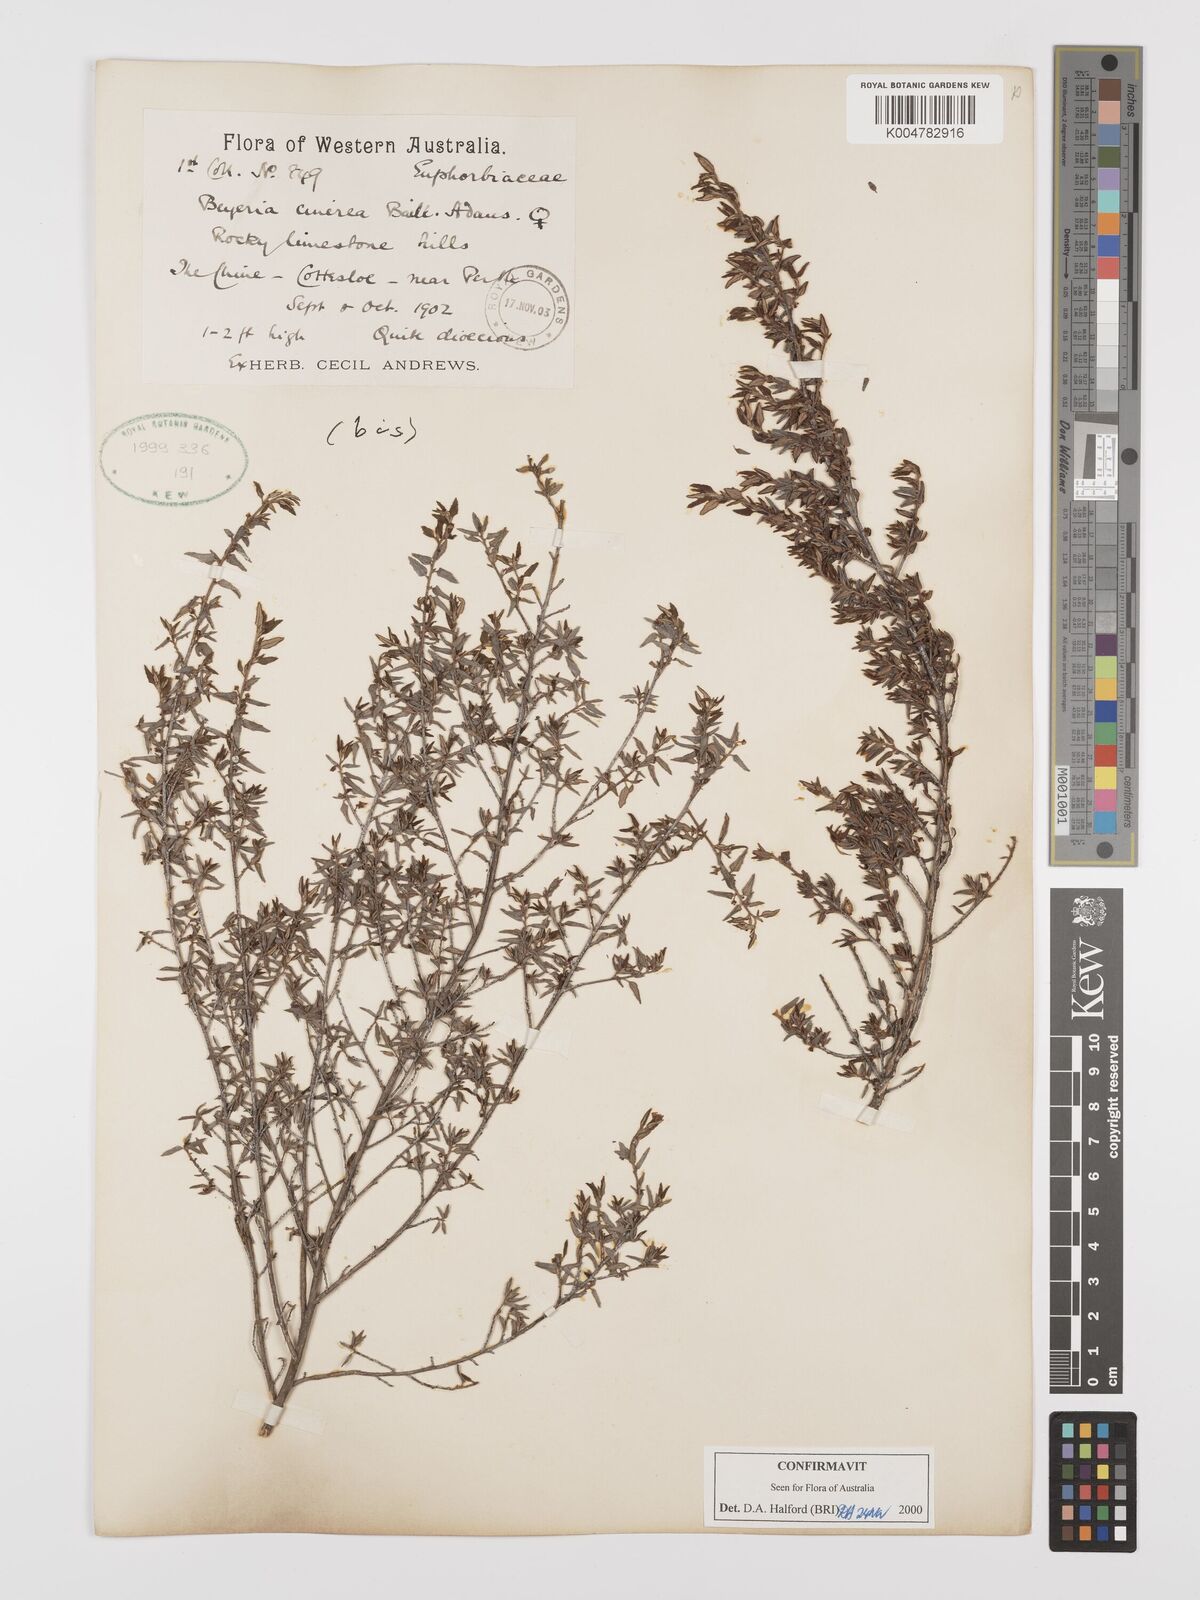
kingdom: Plantae
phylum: Tracheophyta
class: Magnoliopsida
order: Malpighiales
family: Euphorbiaceae
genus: Beyeria
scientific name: Beyeria cinerea
